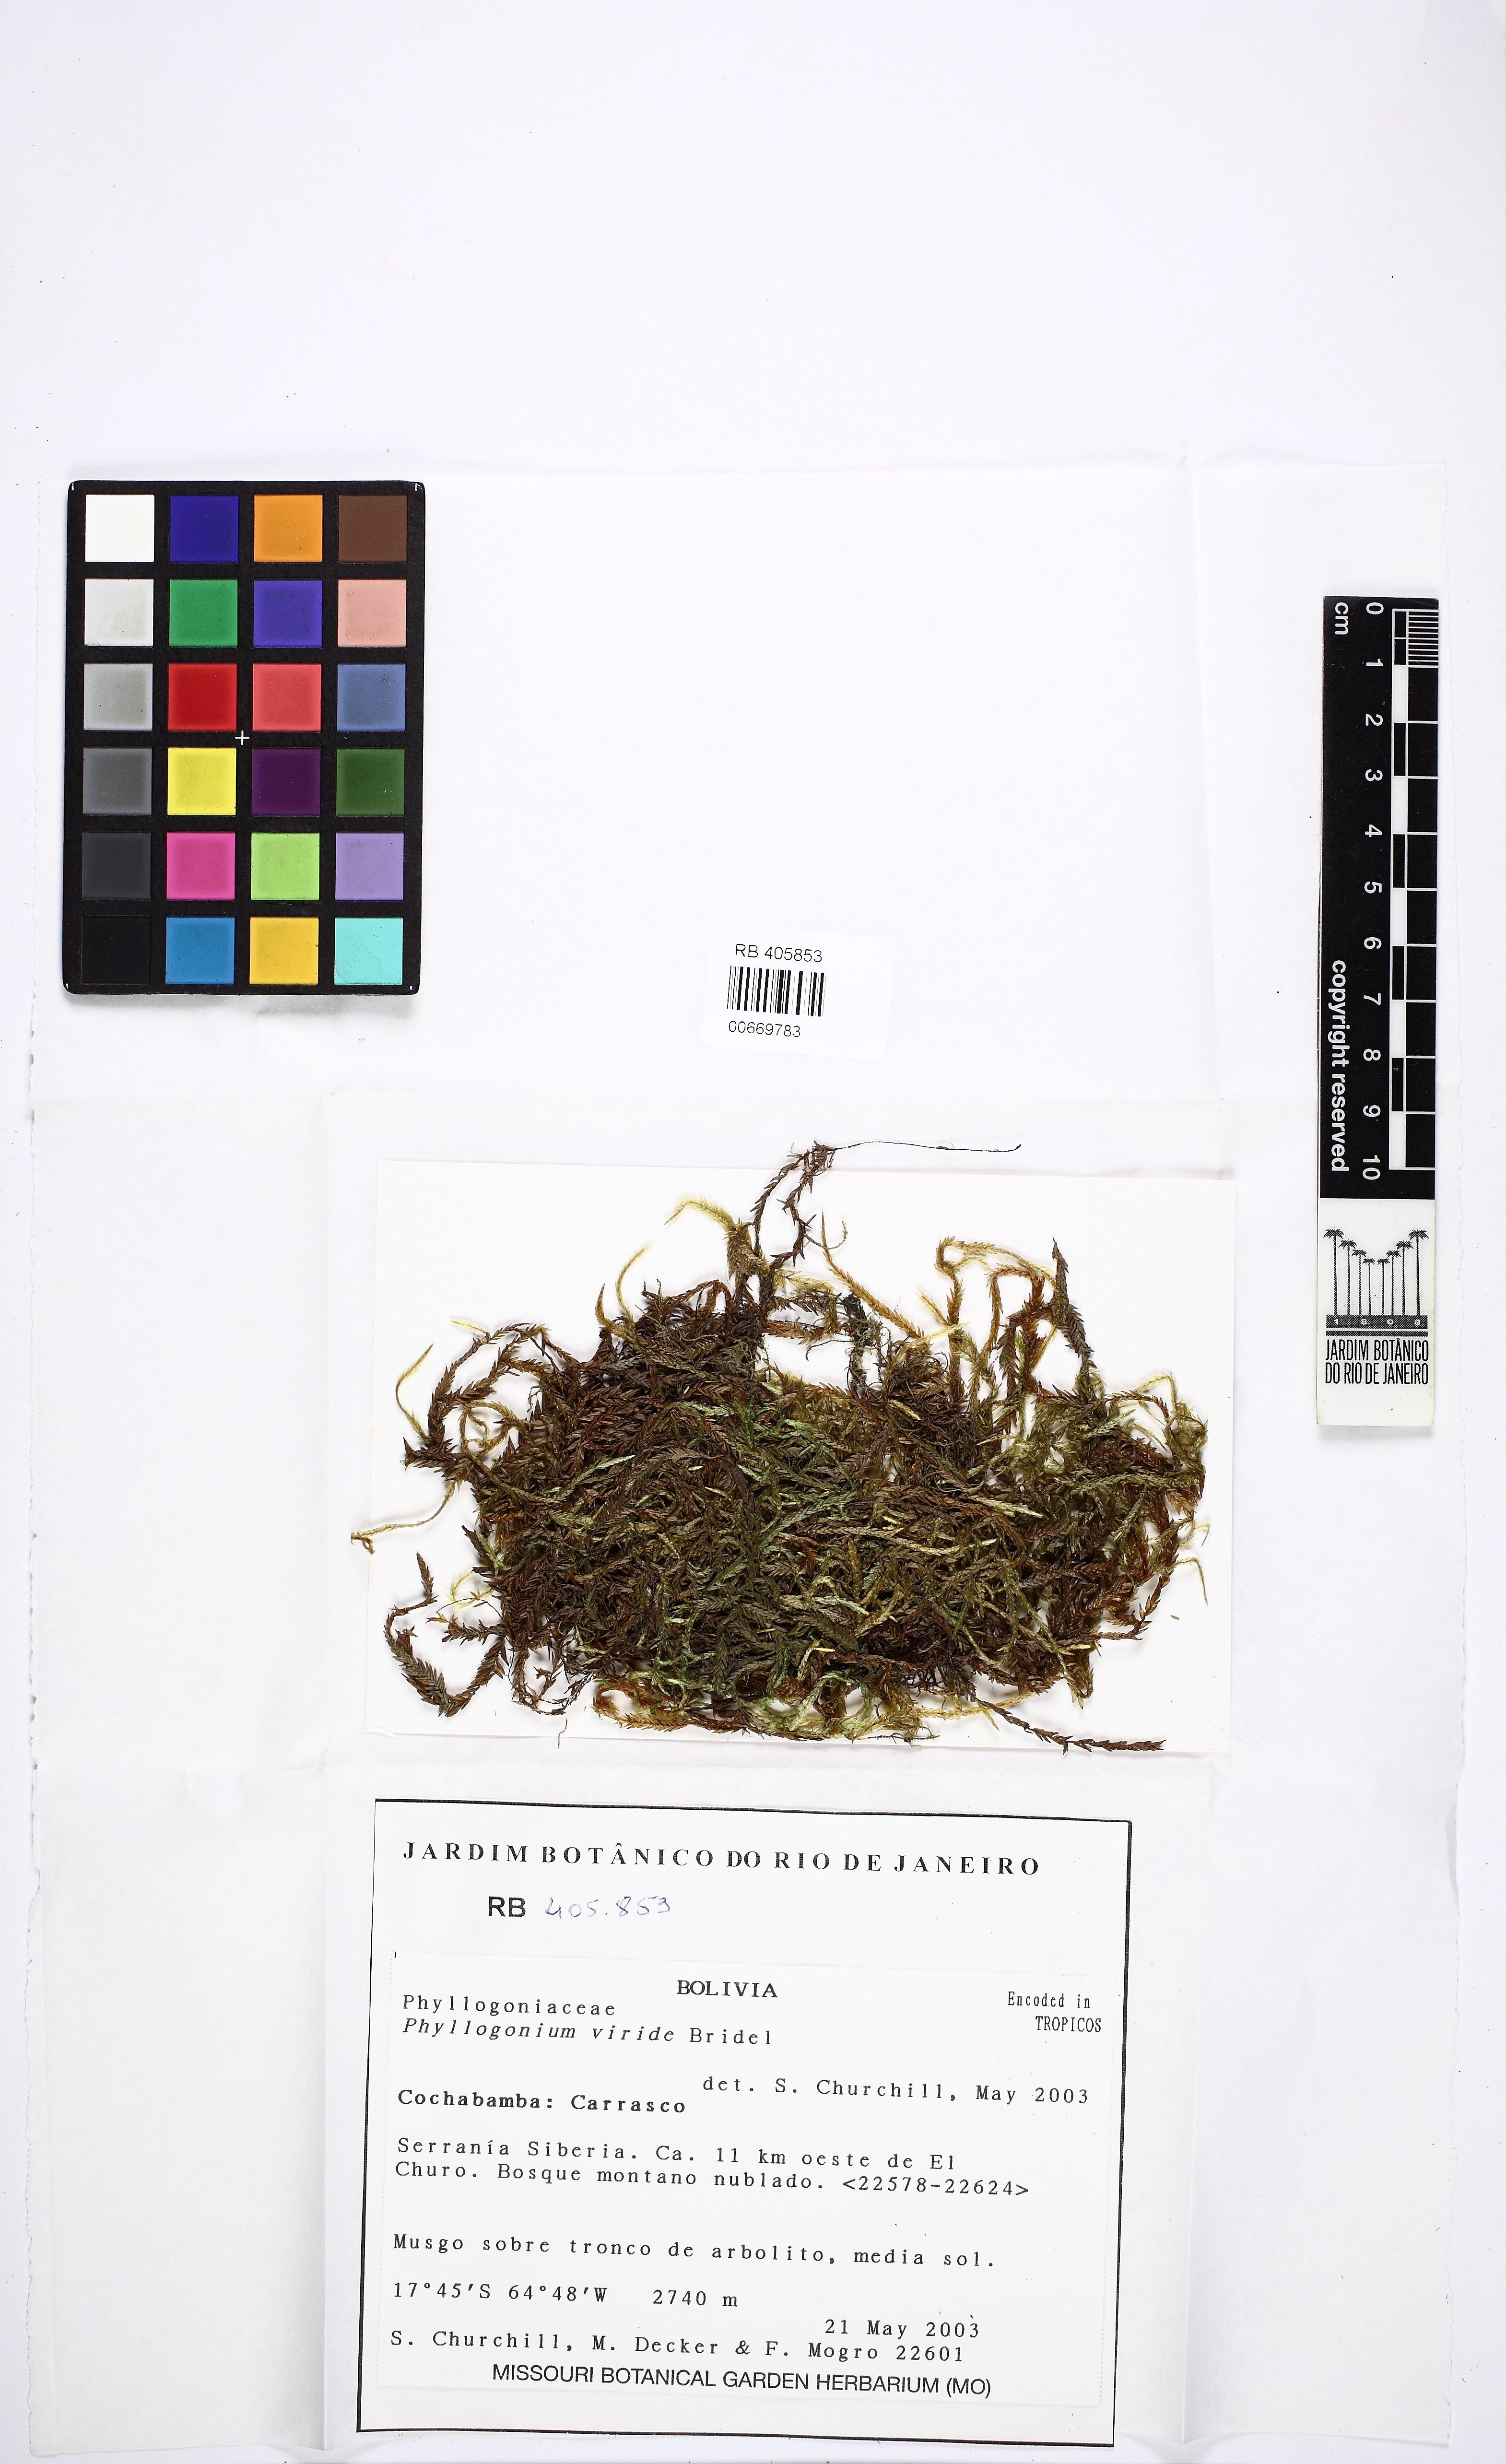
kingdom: Plantae
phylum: Bryophyta
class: Bryopsida
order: Hypnales
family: Phyllogoniaceae
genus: Phyllogonium
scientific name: Phyllogonium viride
